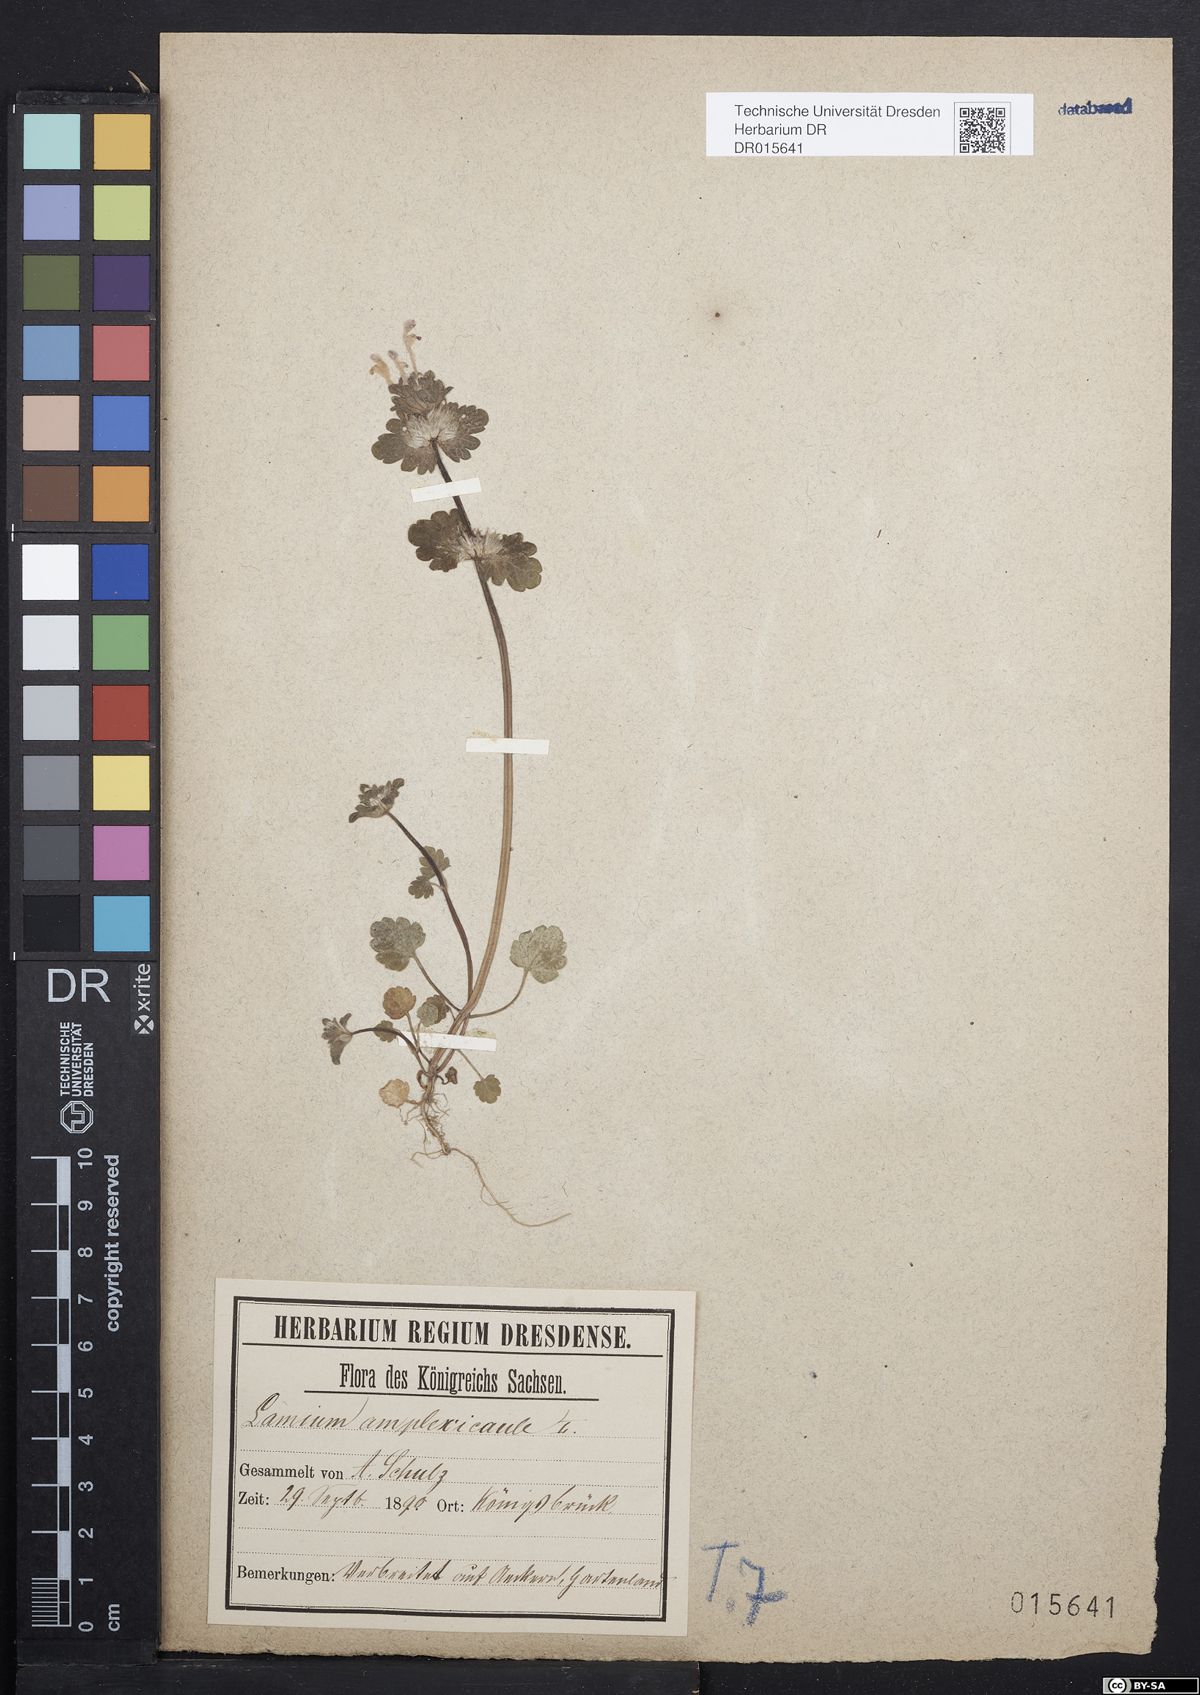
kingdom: Plantae
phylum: Tracheophyta
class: Magnoliopsida
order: Lamiales
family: Lamiaceae
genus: Lamium
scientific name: Lamium amplexicaule
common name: Henbit dead-nettle
